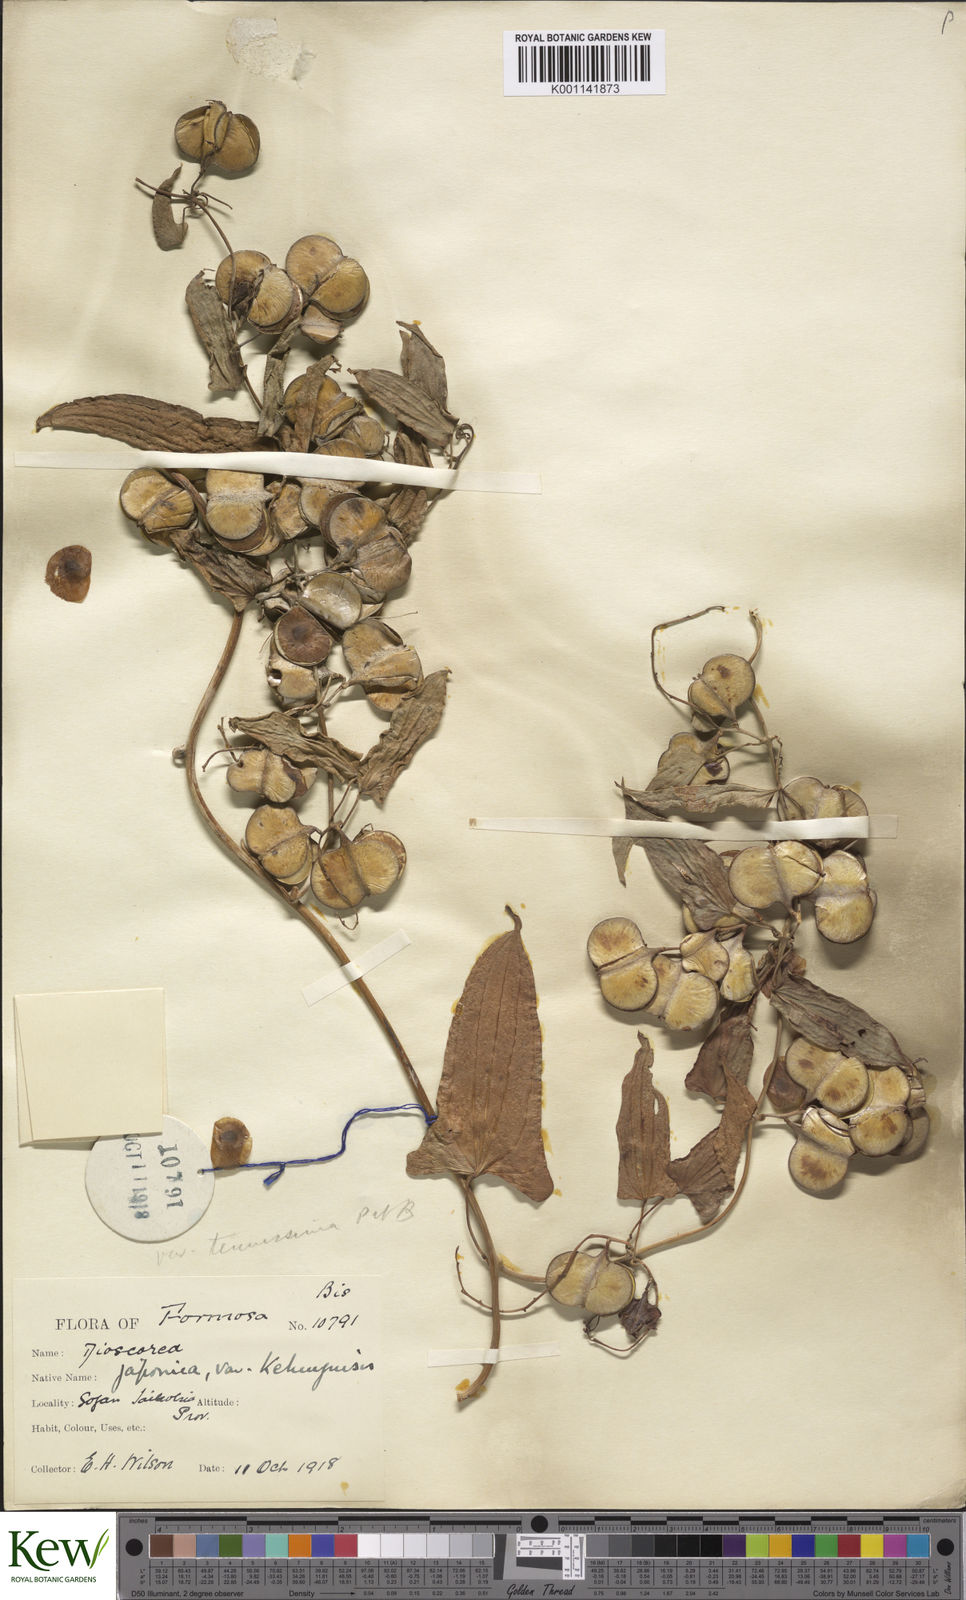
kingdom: Plantae
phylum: Tracheophyta
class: Liliopsida
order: Dioscoreales
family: Dioscoreaceae
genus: Dioscorea
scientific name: Dioscorea japonica
